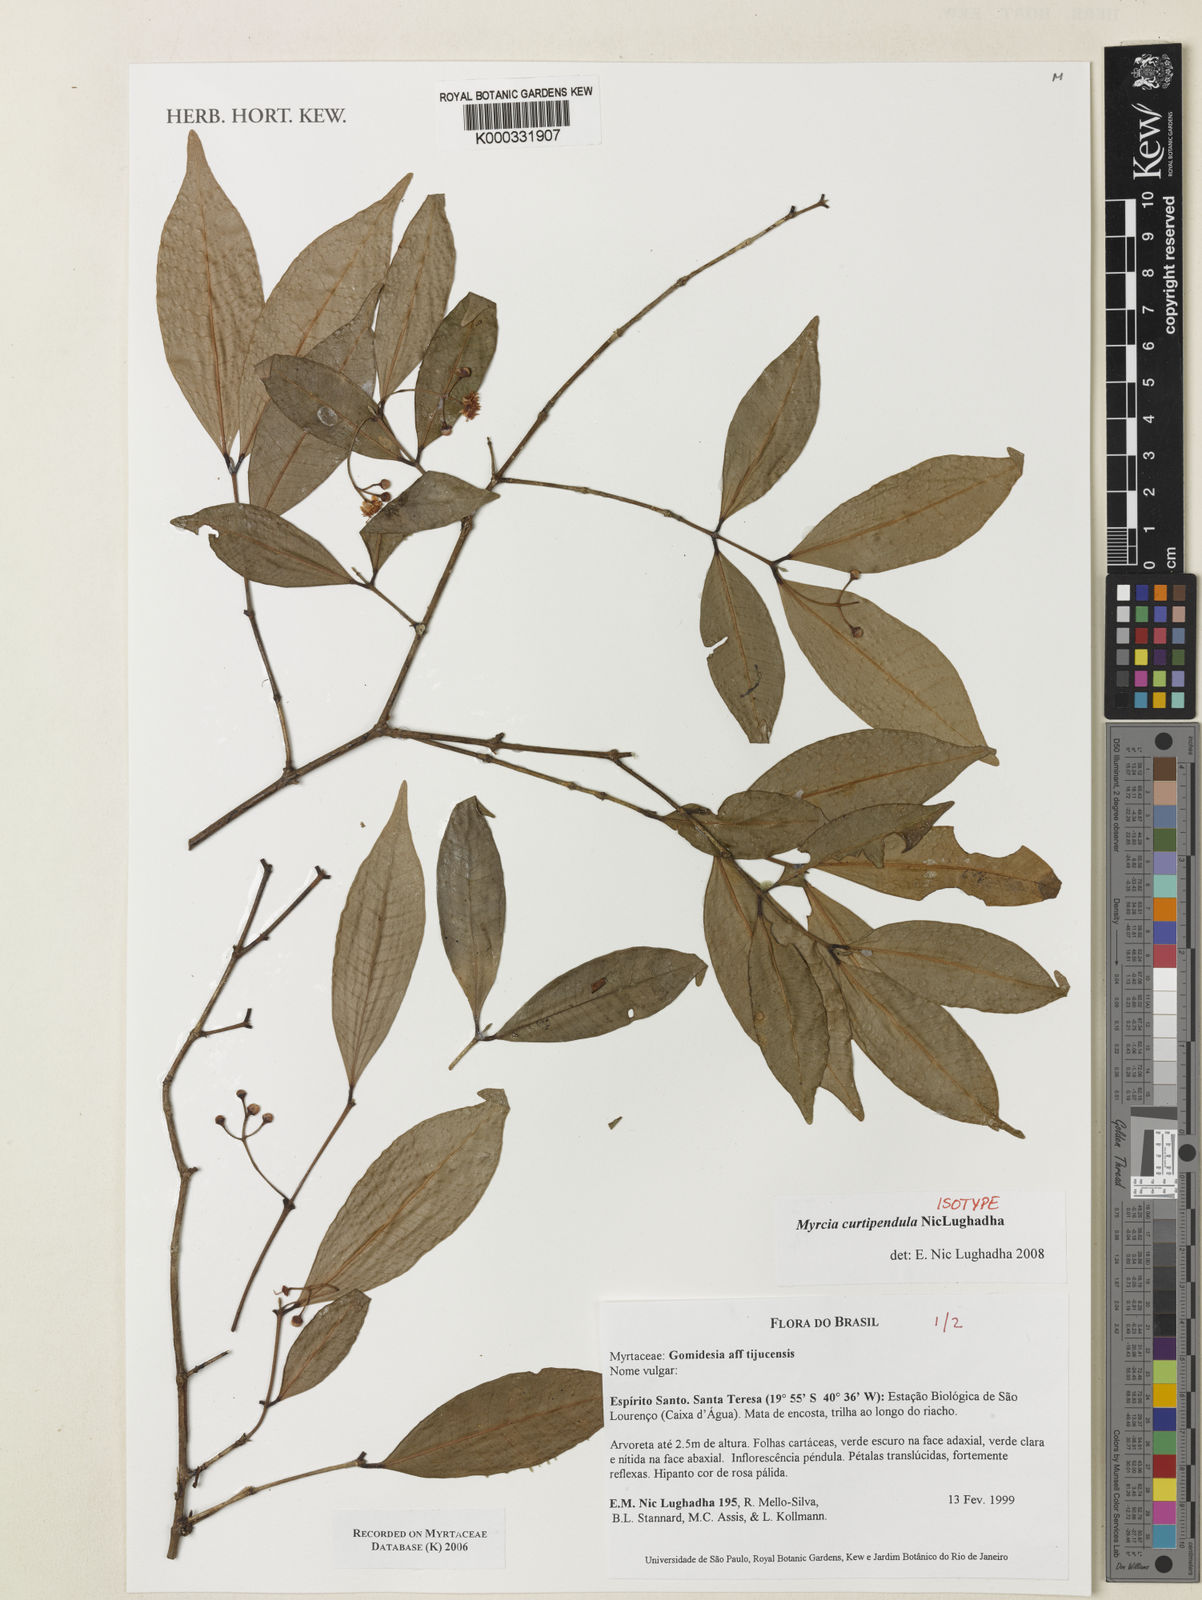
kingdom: Plantae
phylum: Tracheophyta
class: Magnoliopsida
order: Myrtales
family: Myrtaceae
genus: Myrcia
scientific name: Myrcia curtipendula
